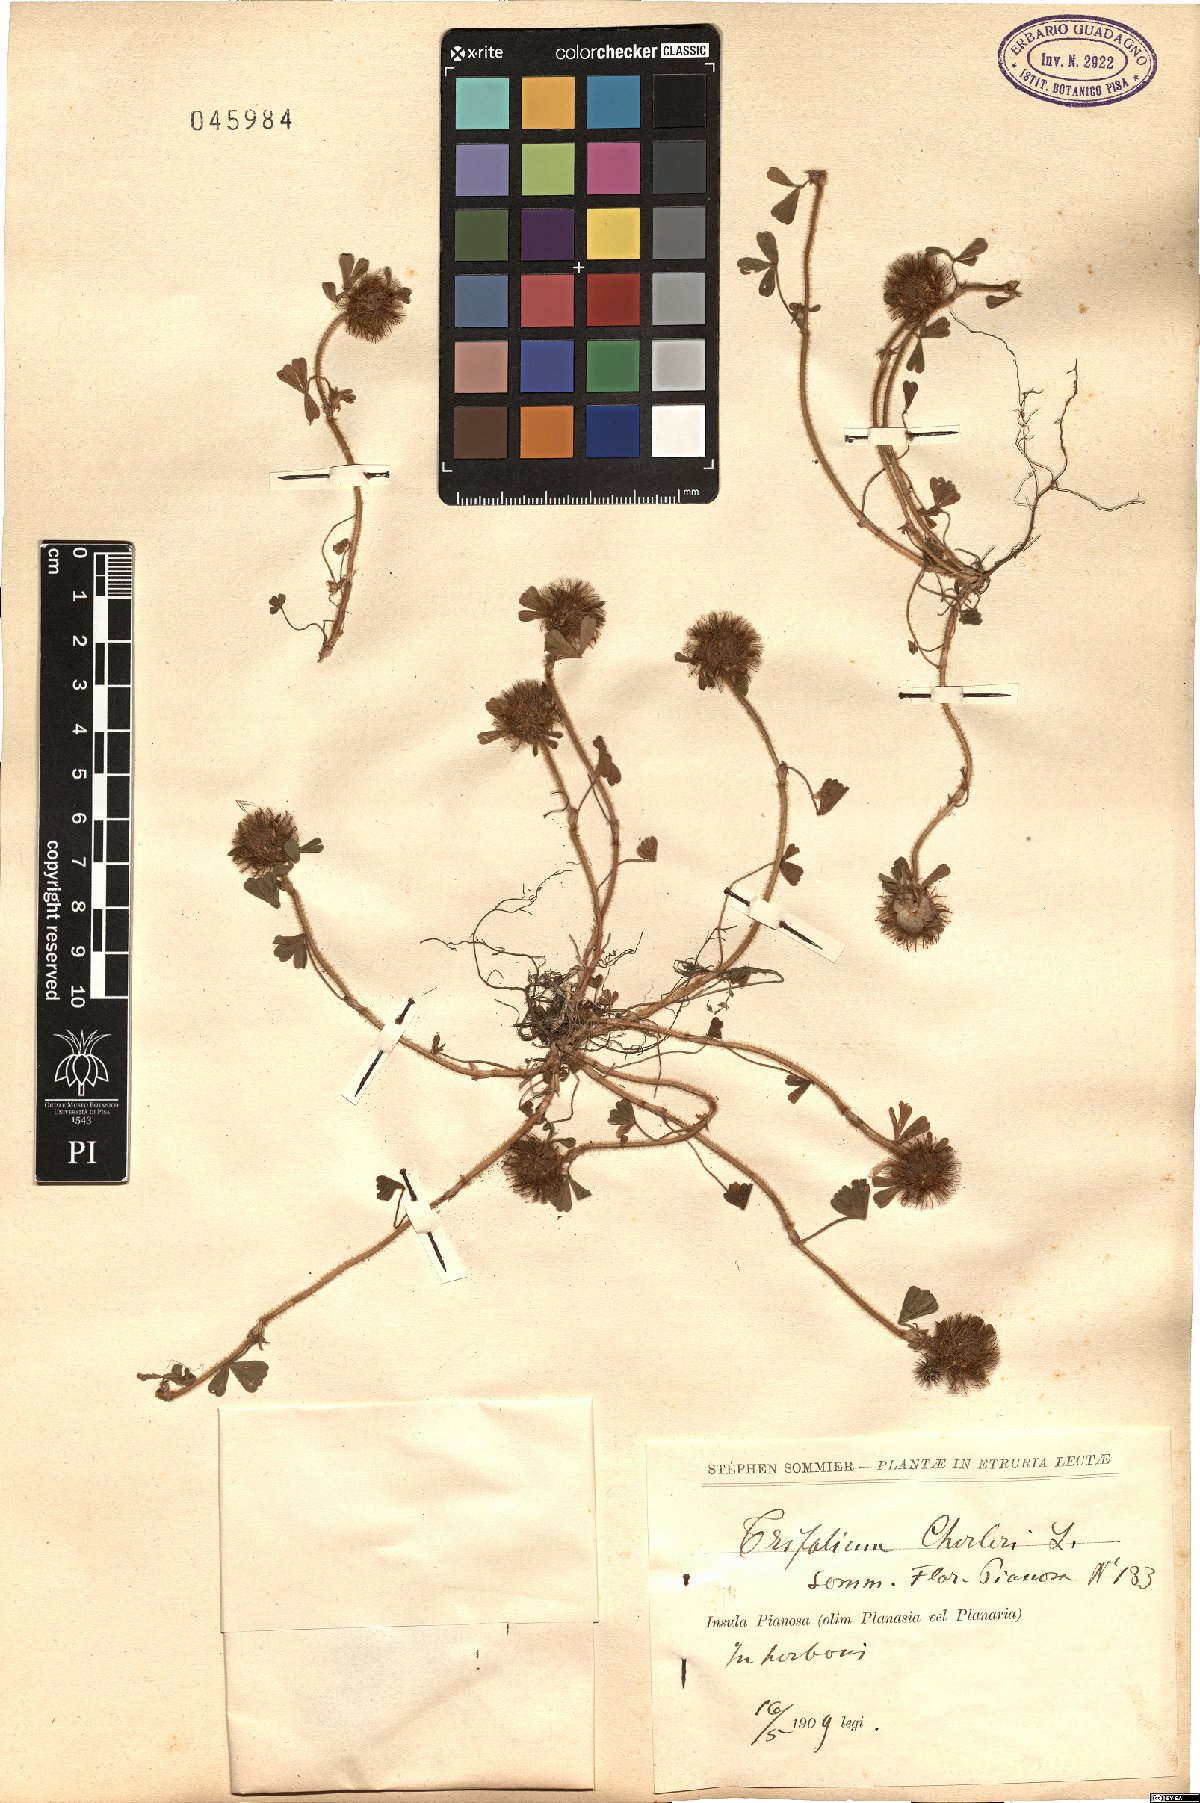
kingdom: Plantae
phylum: Tracheophyta
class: Magnoliopsida
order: Fabales
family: Fabaceae
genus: Trifolium
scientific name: Trifolium cherleri
